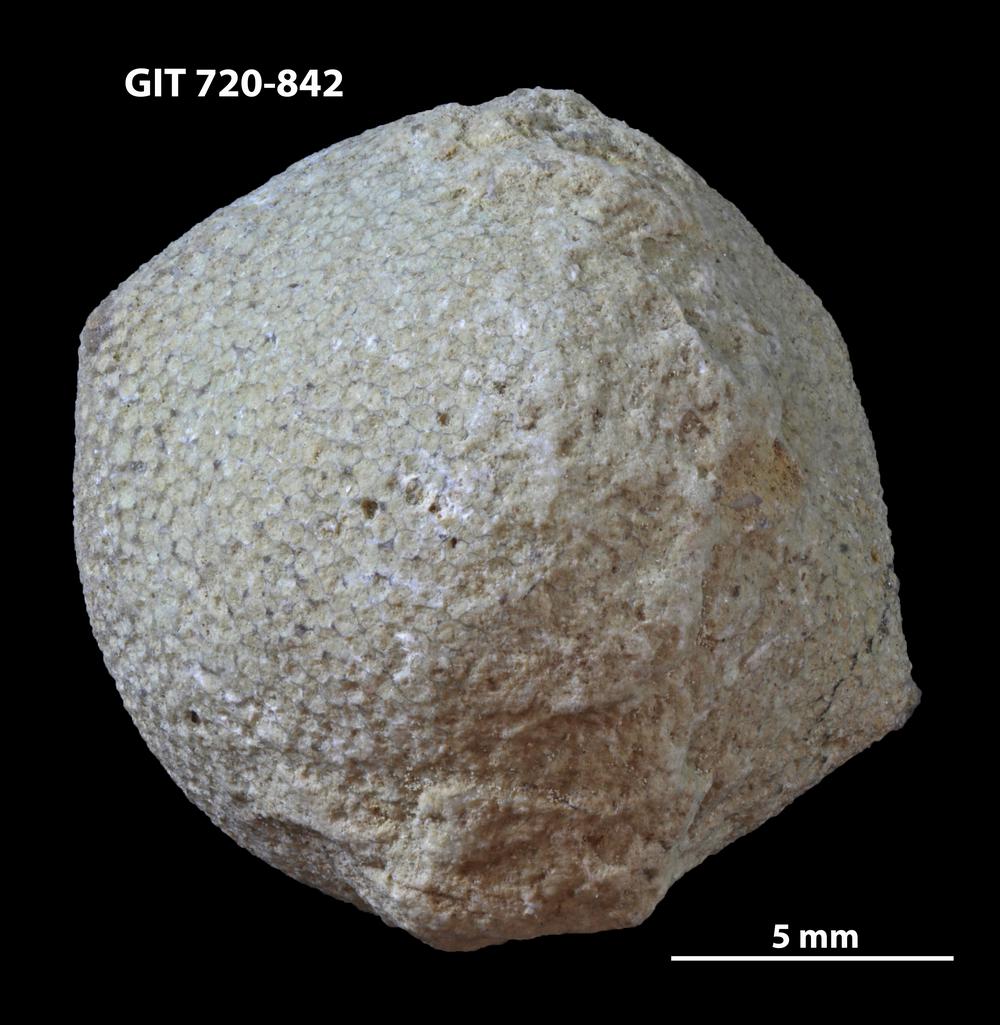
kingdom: Animalia
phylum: Bryozoa
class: Stenolaemata
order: Trepostomatida
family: Diplotrypidae
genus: Diplotrypa
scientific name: Diplotrypa
